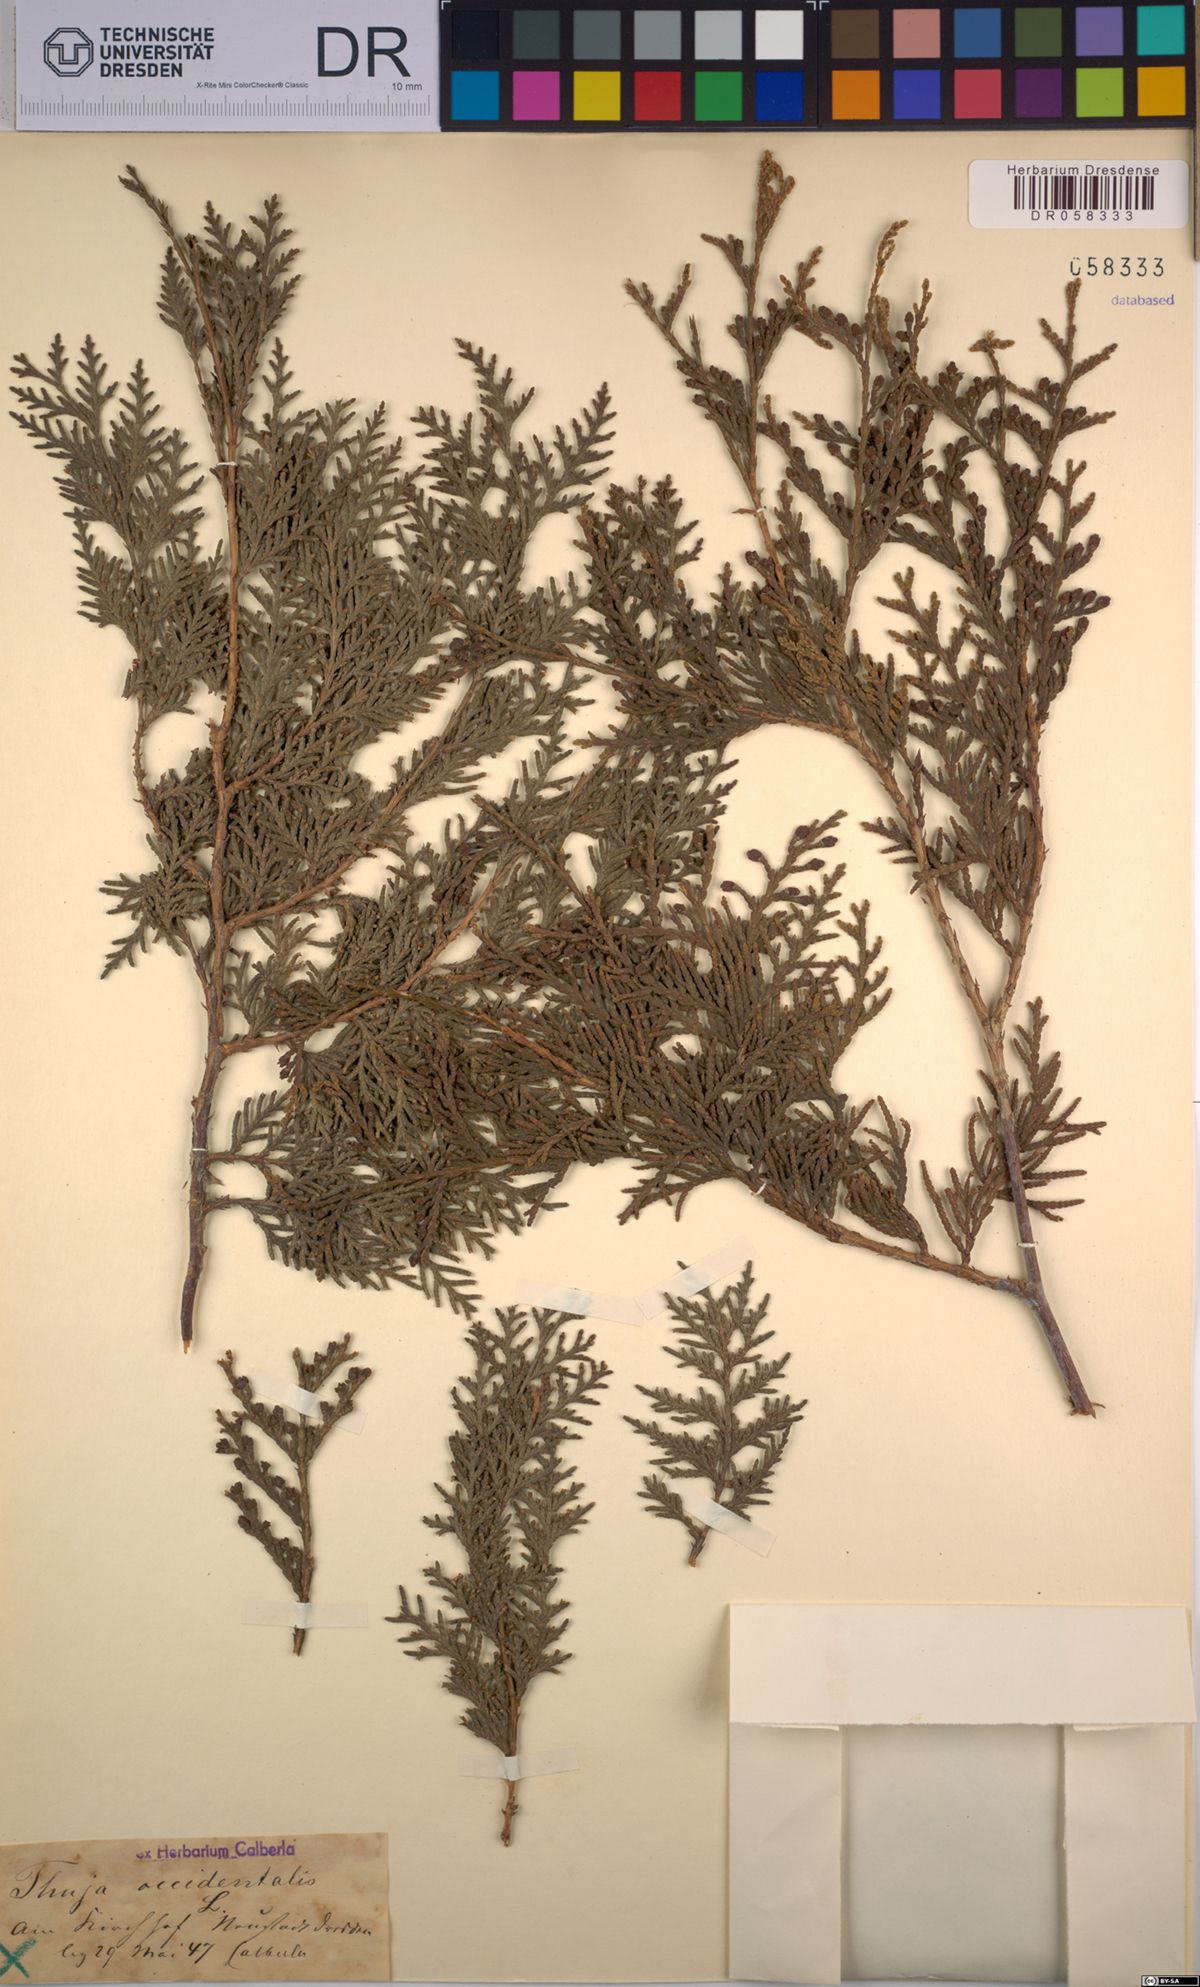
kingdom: Plantae
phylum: Tracheophyta
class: Pinopsida
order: Pinales
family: Cupressaceae
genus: Thuja
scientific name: Thuja occidentalis
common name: Northern white-cedar
